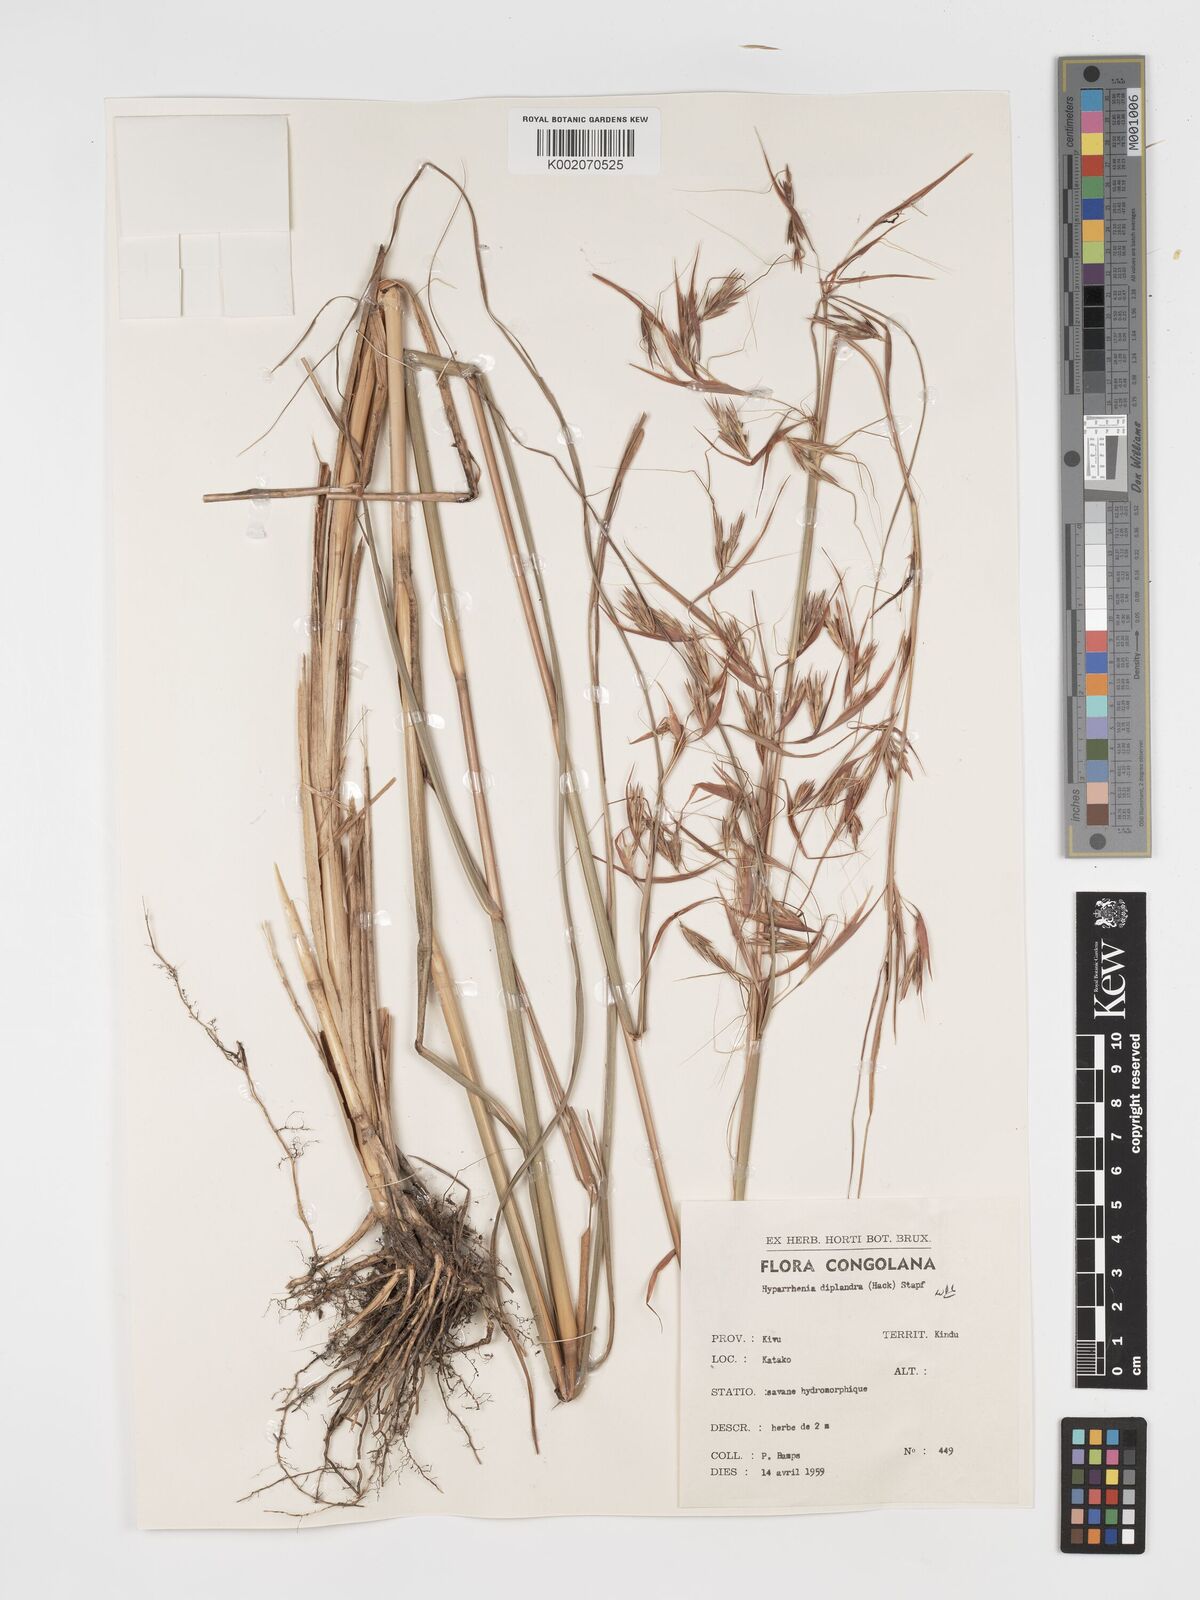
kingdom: Plantae
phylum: Tracheophyta
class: Liliopsida
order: Poales
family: Poaceae
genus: Hyparrhenia
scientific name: Hyparrhenia diplandra
